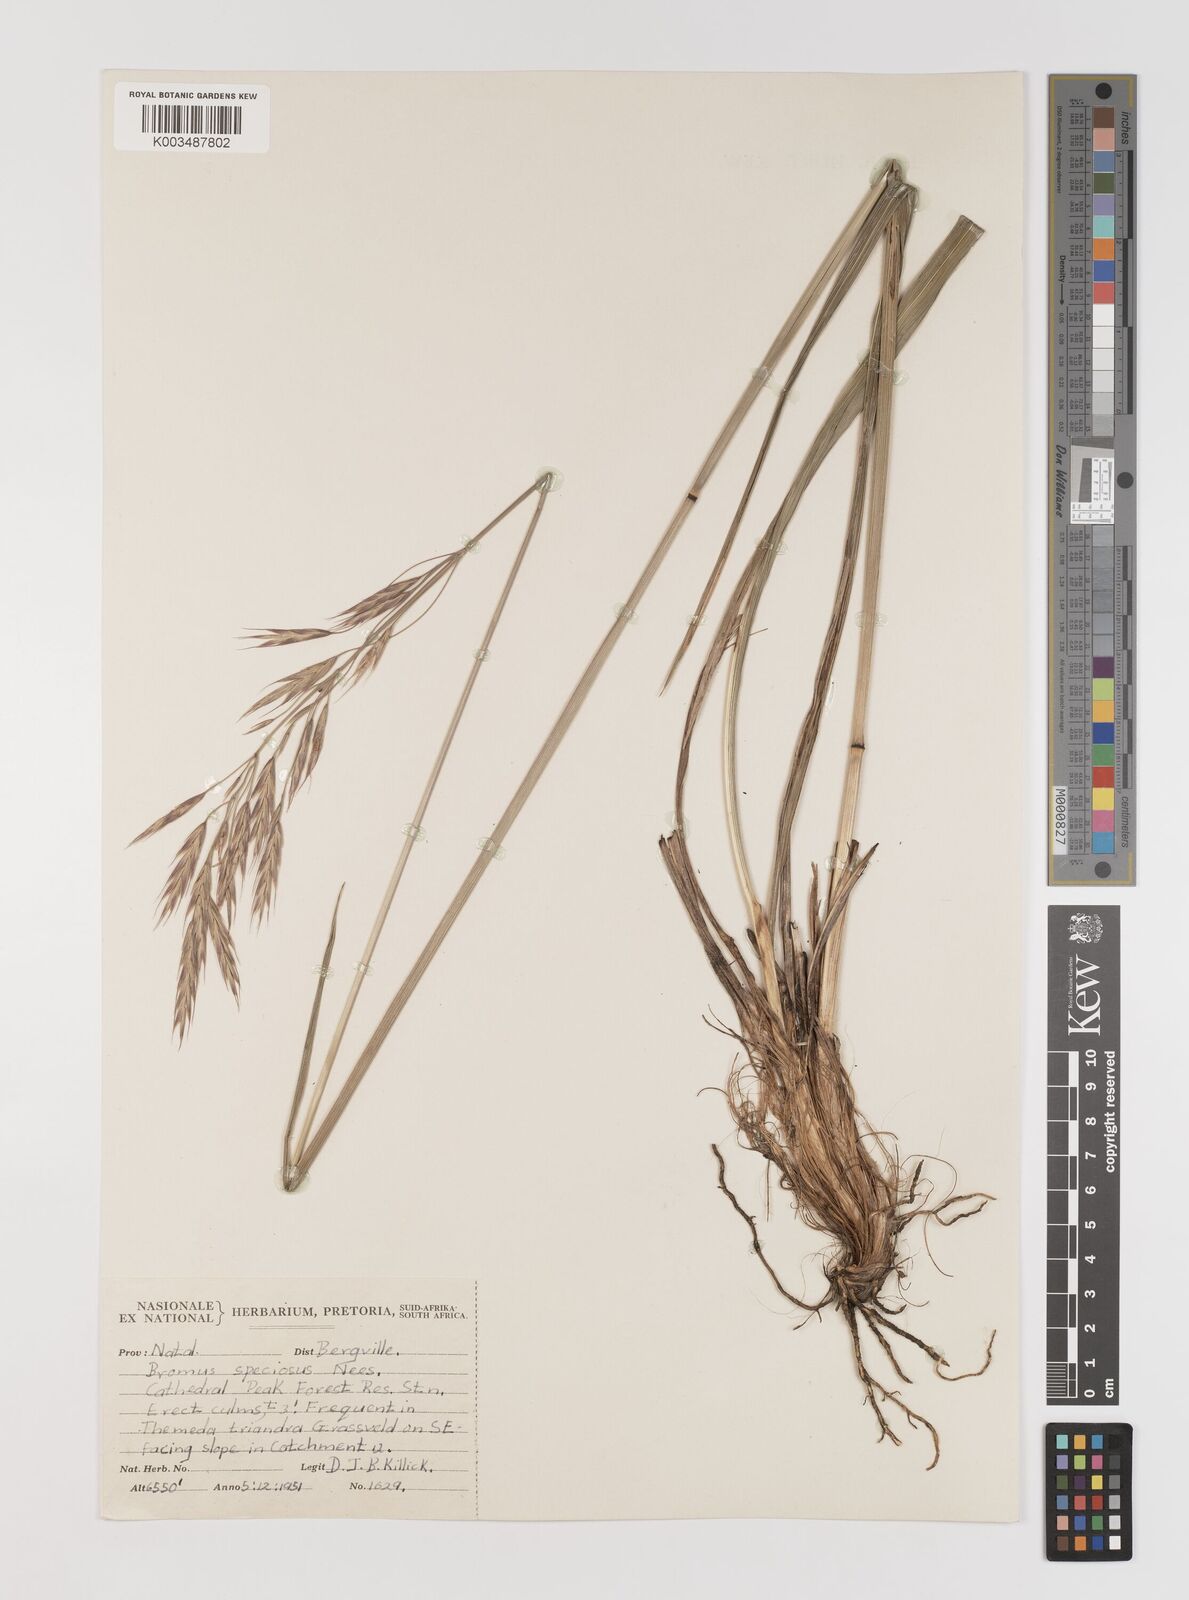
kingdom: Plantae
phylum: Tracheophyta
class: Liliopsida
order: Poales
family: Poaceae
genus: Bromus
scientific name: Bromus speciosus
